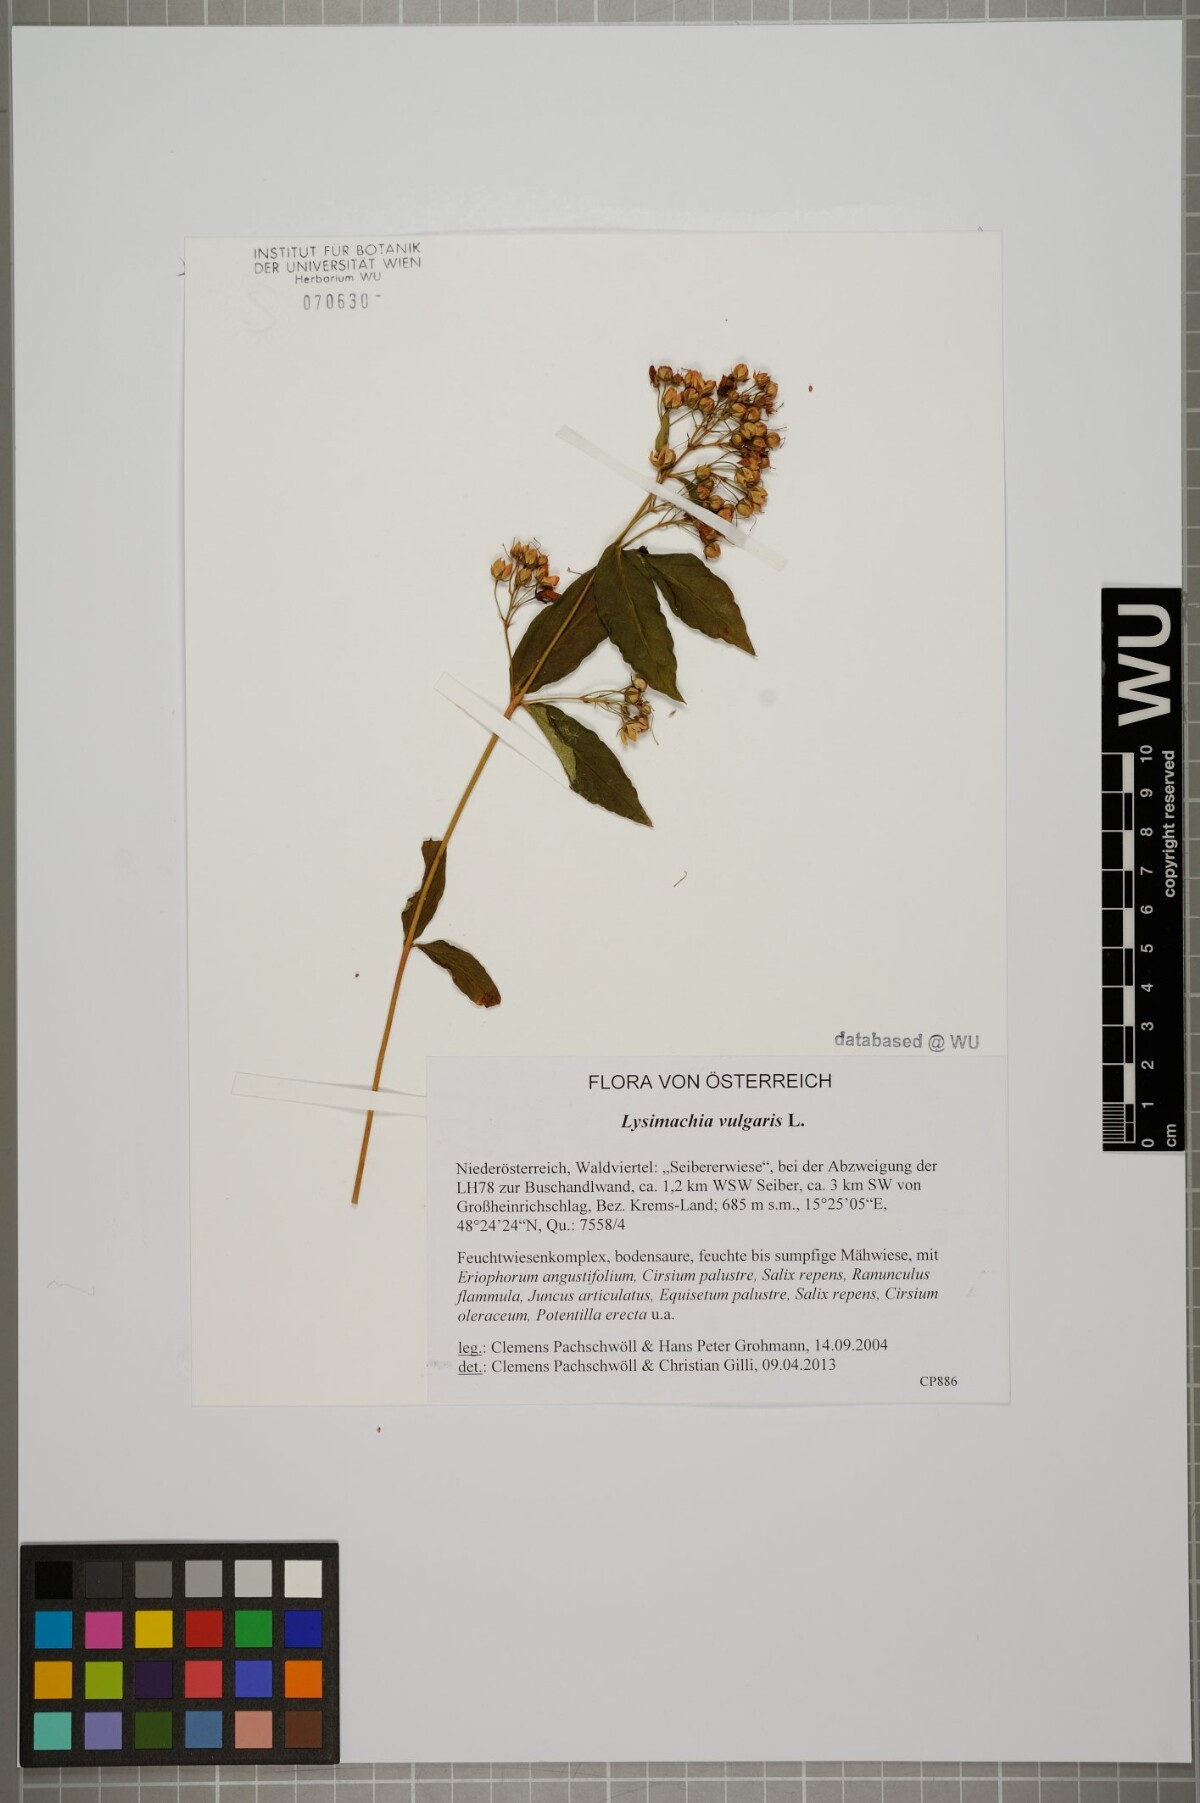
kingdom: Plantae
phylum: Tracheophyta
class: Magnoliopsida
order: Ericales
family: Primulaceae
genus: Lysimachia
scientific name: Lysimachia vulgaris
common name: Yellow loosestrife
